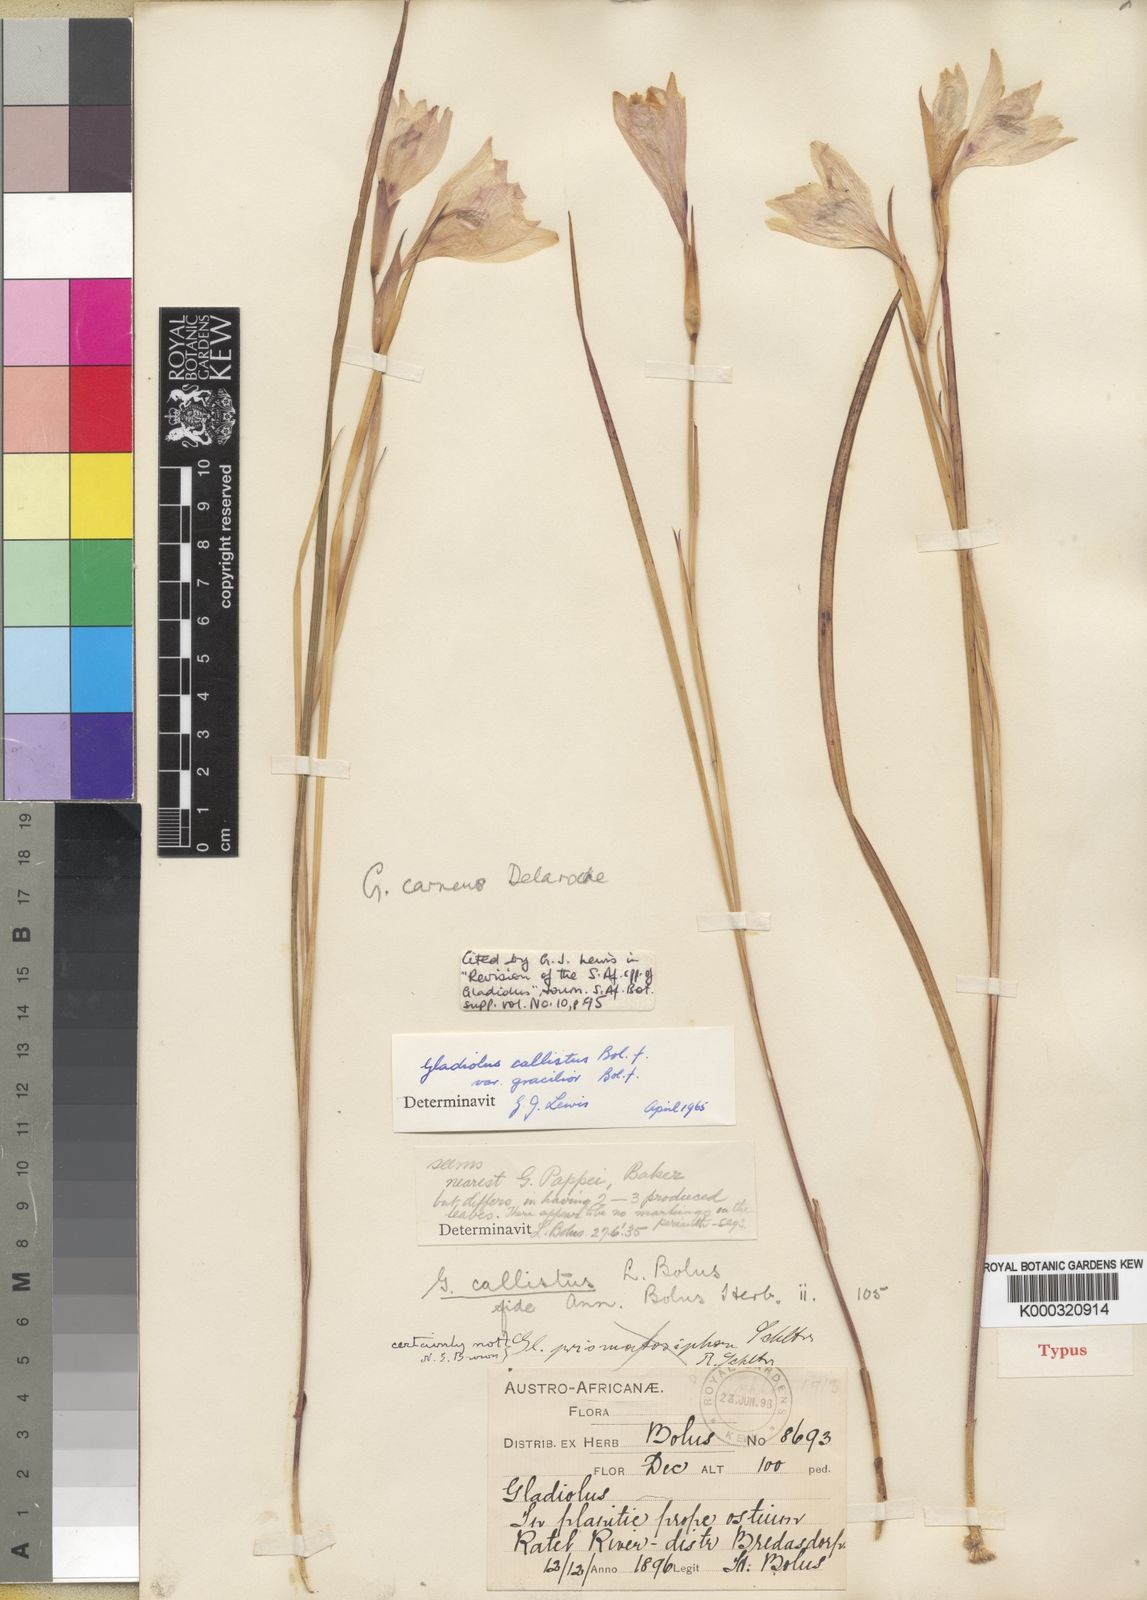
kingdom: Plantae
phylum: Tracheophyta
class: Liliopsida
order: Asparagales
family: Iridaceae
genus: Gladiolus
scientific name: Gladiolus carneus
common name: Painted-lady
